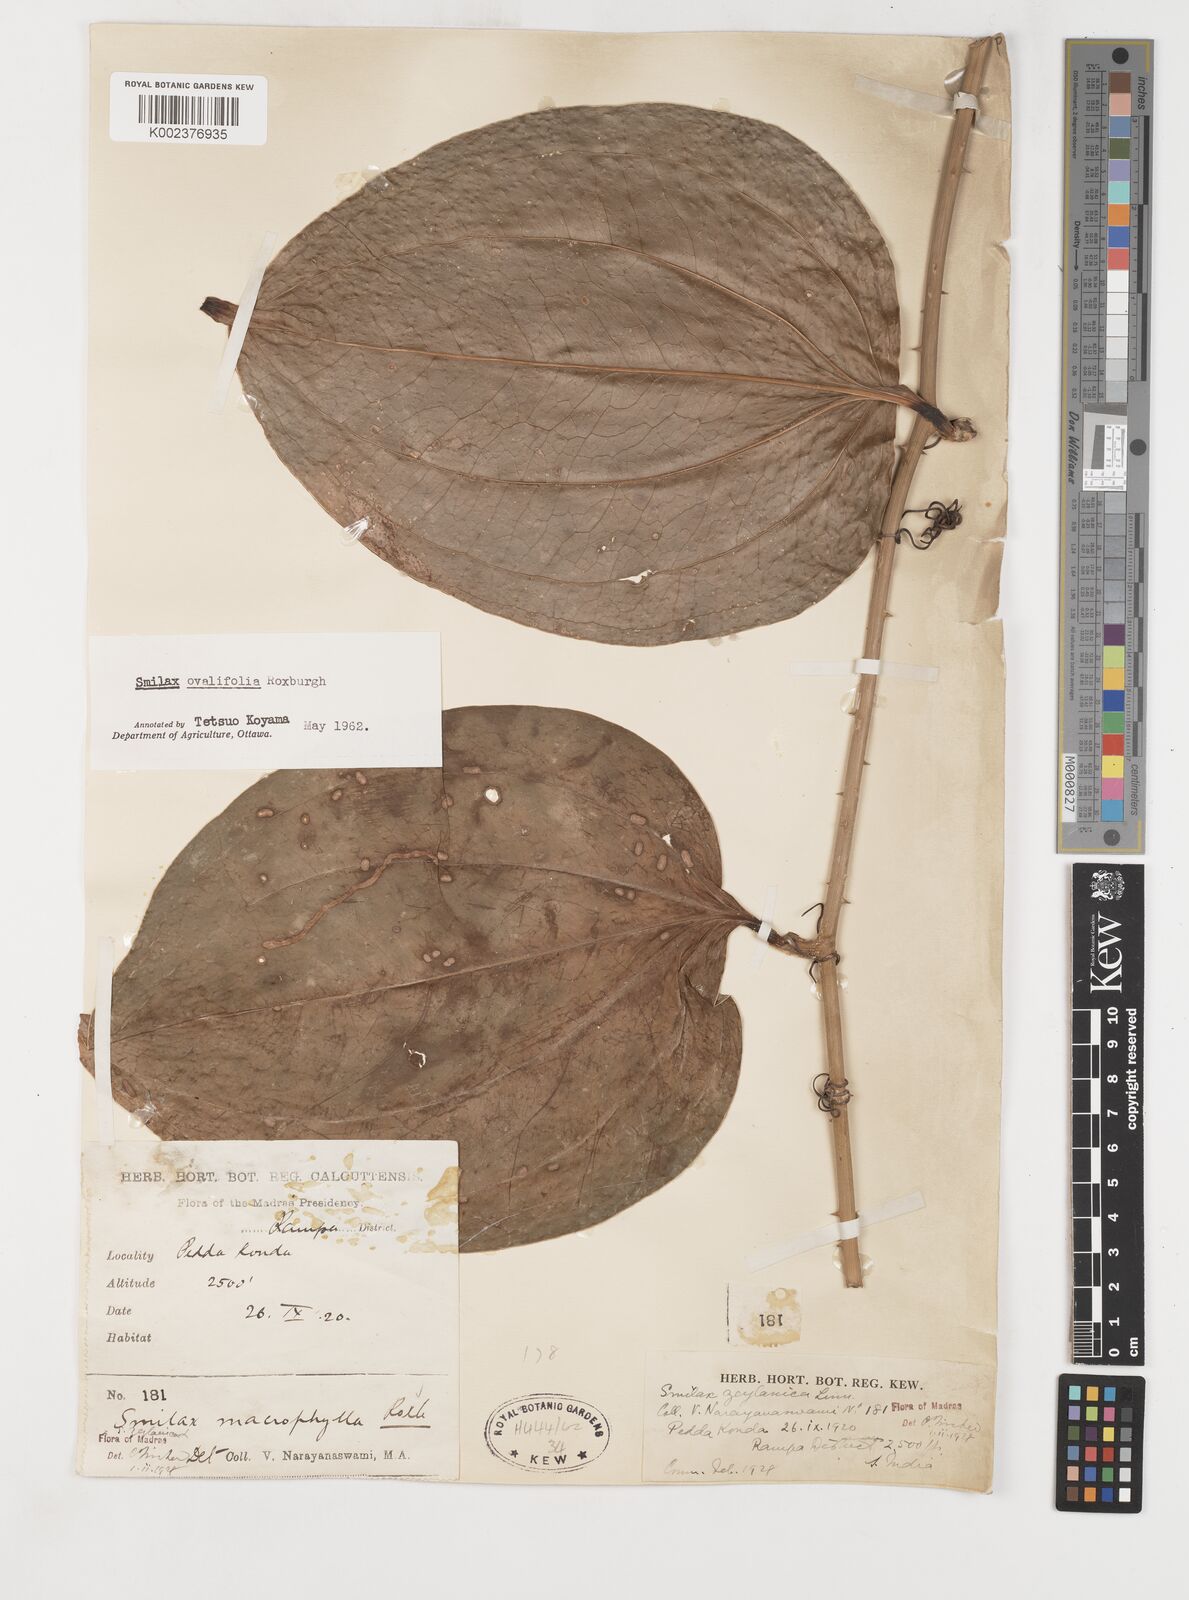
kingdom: Plantae
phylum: Tracheophyta
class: Liliopsida
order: Liliales
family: Smilacaceae
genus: Smilax
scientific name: Smilax ovalifolia
